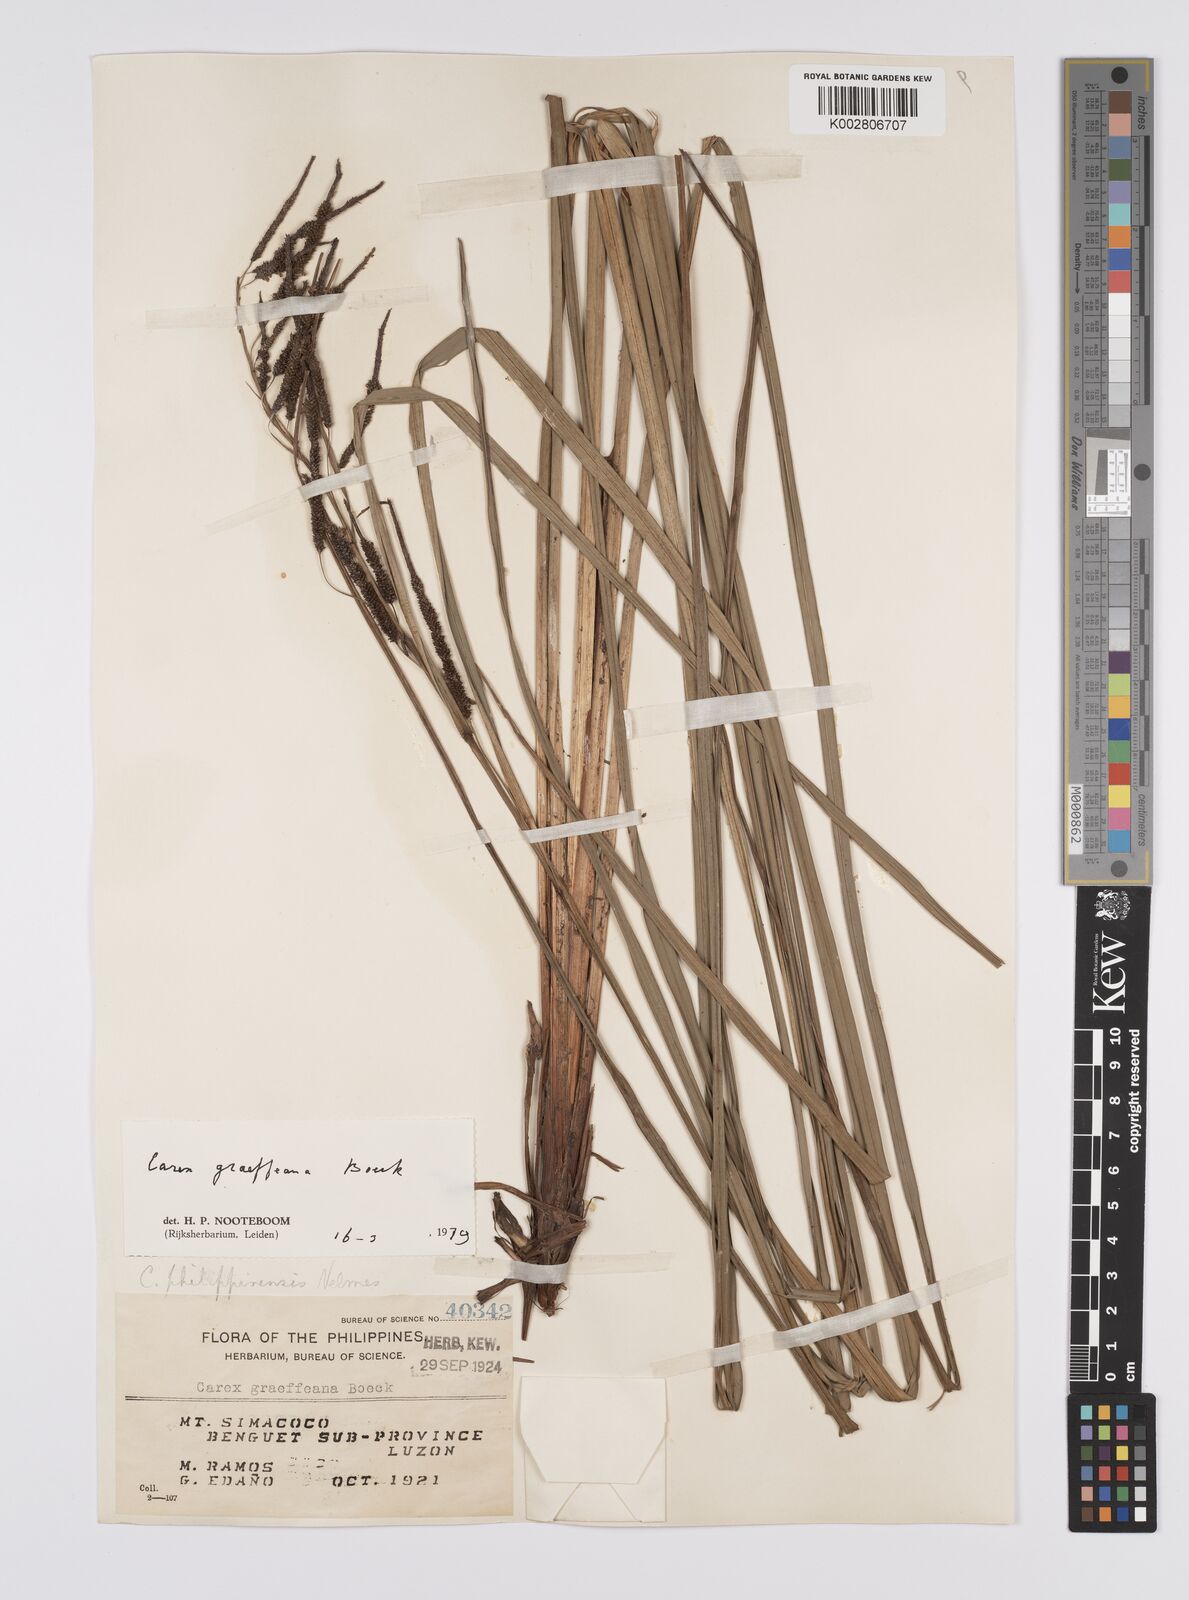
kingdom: Plantae
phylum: Tracheophyta
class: Liliopsida
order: Poales
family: Cyperaceae
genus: Carex
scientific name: Carex graeffeana
